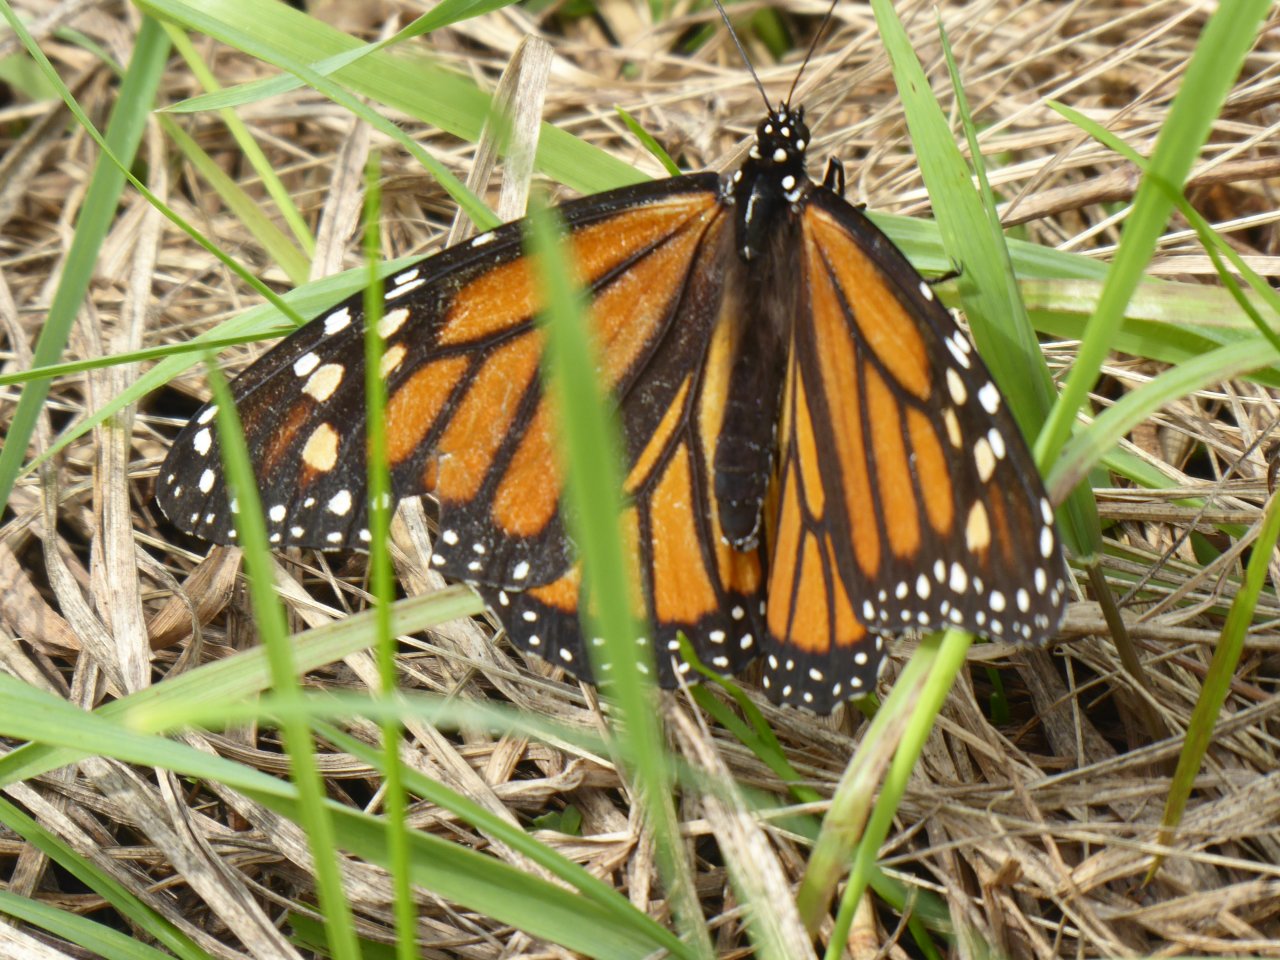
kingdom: Animalia
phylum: Arthropoda
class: Insecta
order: Lepidoptera
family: Nymphalidae
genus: Danaus
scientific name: Danaus plexippus
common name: Monarch
